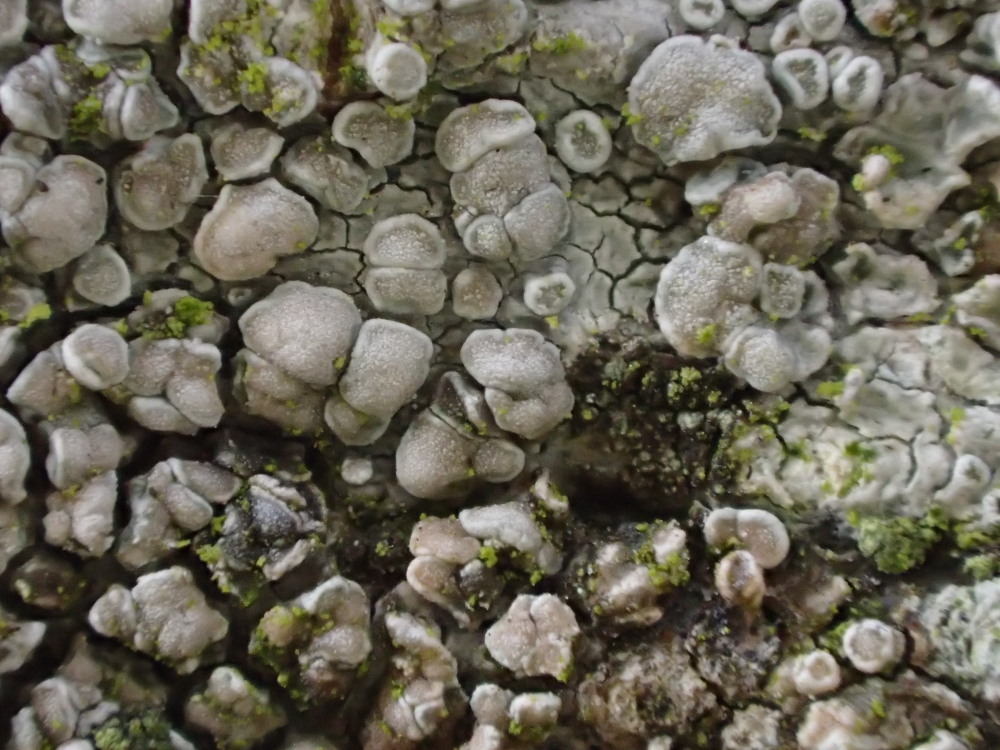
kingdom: Fungi
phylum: Ascomycota
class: Lecanoromycetes
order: Lecanorales
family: Lecanoraceae
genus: Glaucomaria
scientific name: Glaucomaria carpinea
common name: hviddugget kantskivelav
